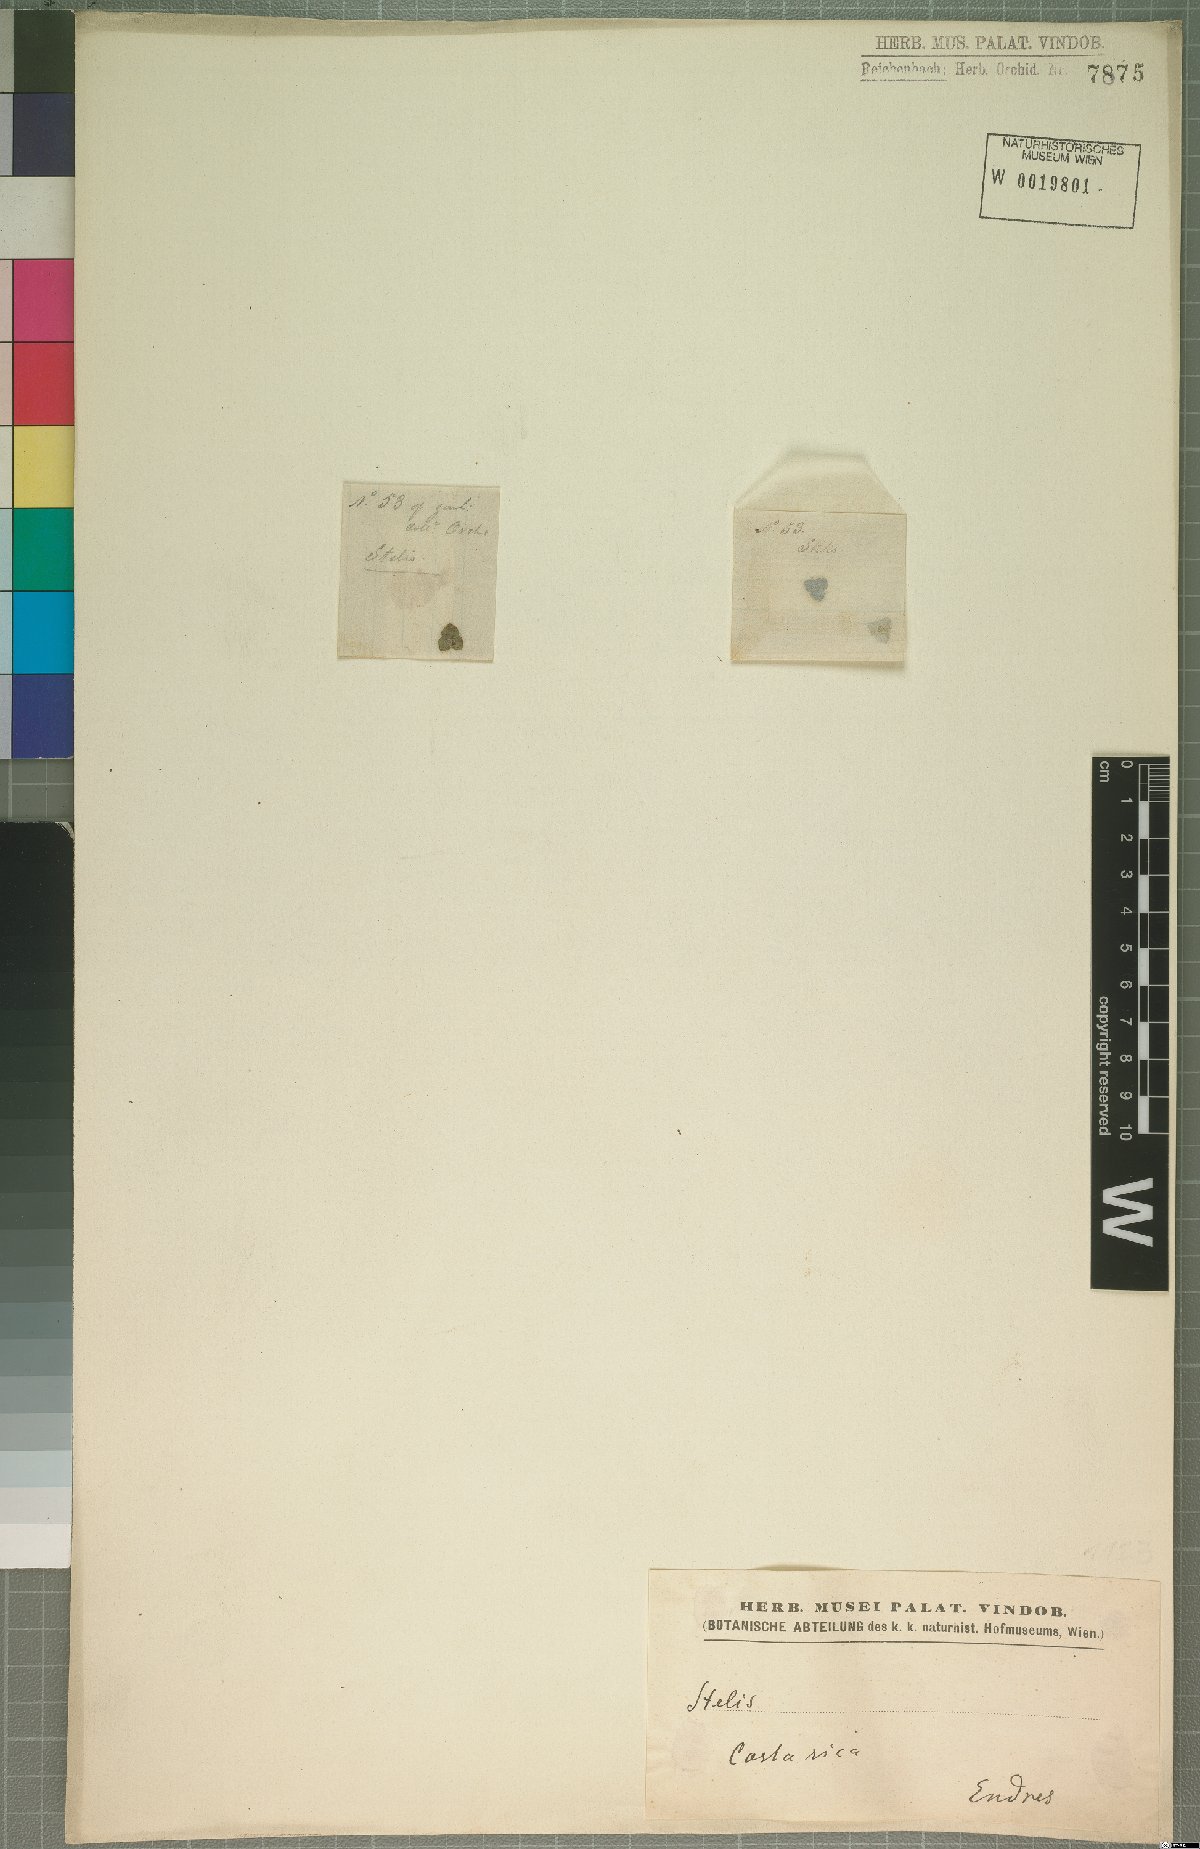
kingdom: Plantae
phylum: Tracheophyta
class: Liliopsida
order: Asparagales
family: Orchidaceae
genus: Stelis
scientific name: Stelis
